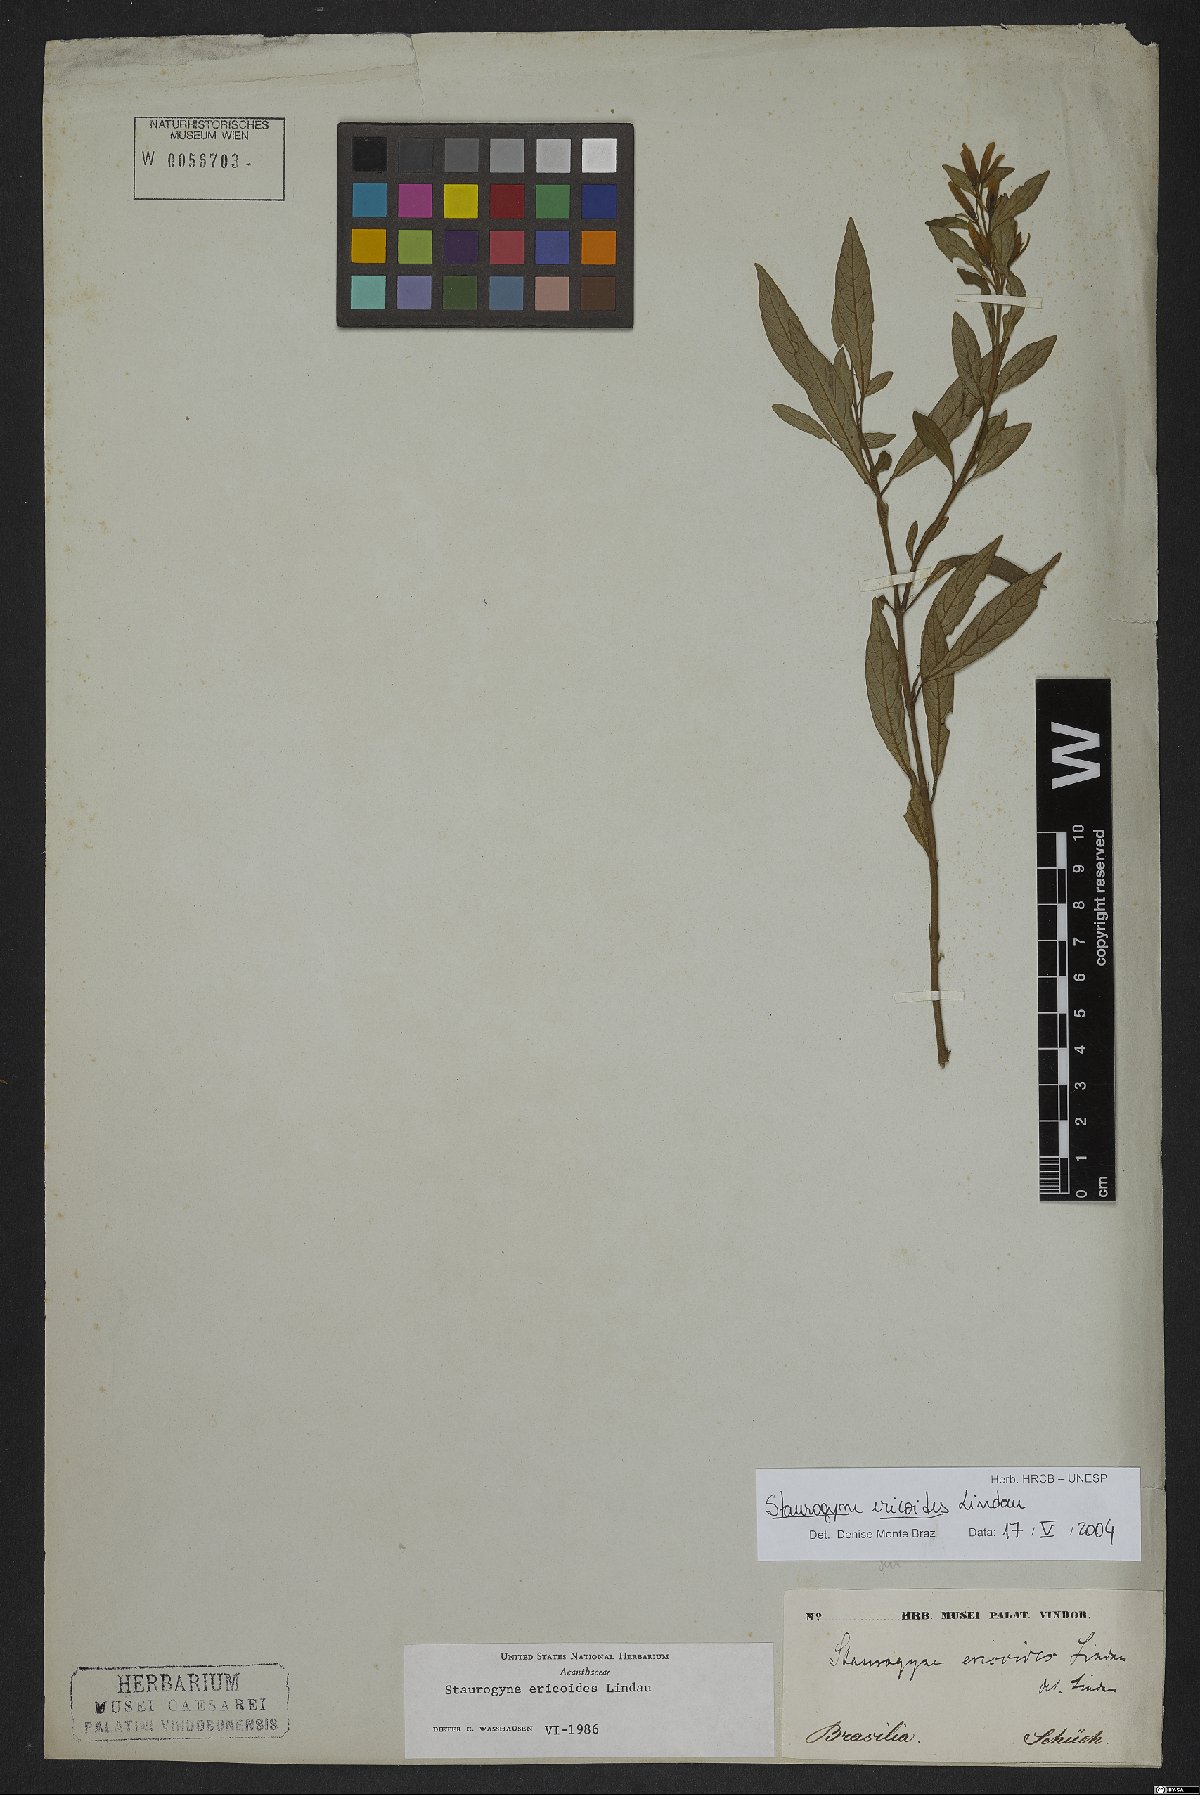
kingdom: Plantae
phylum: Tracheophyta
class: Magnoliopsida
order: Lamiales
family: Acanthaceae
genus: Staurogyne
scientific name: Staurogyne ericoides
